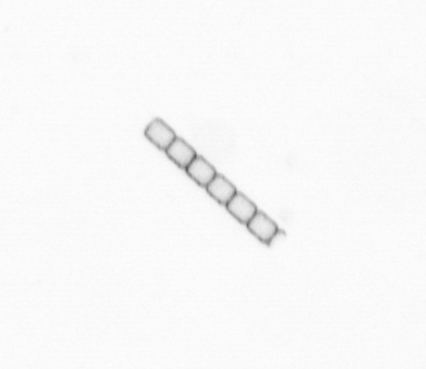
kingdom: Chromista
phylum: Ochrophyta
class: Bacillariophyceae
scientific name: Bacillariophyceae
